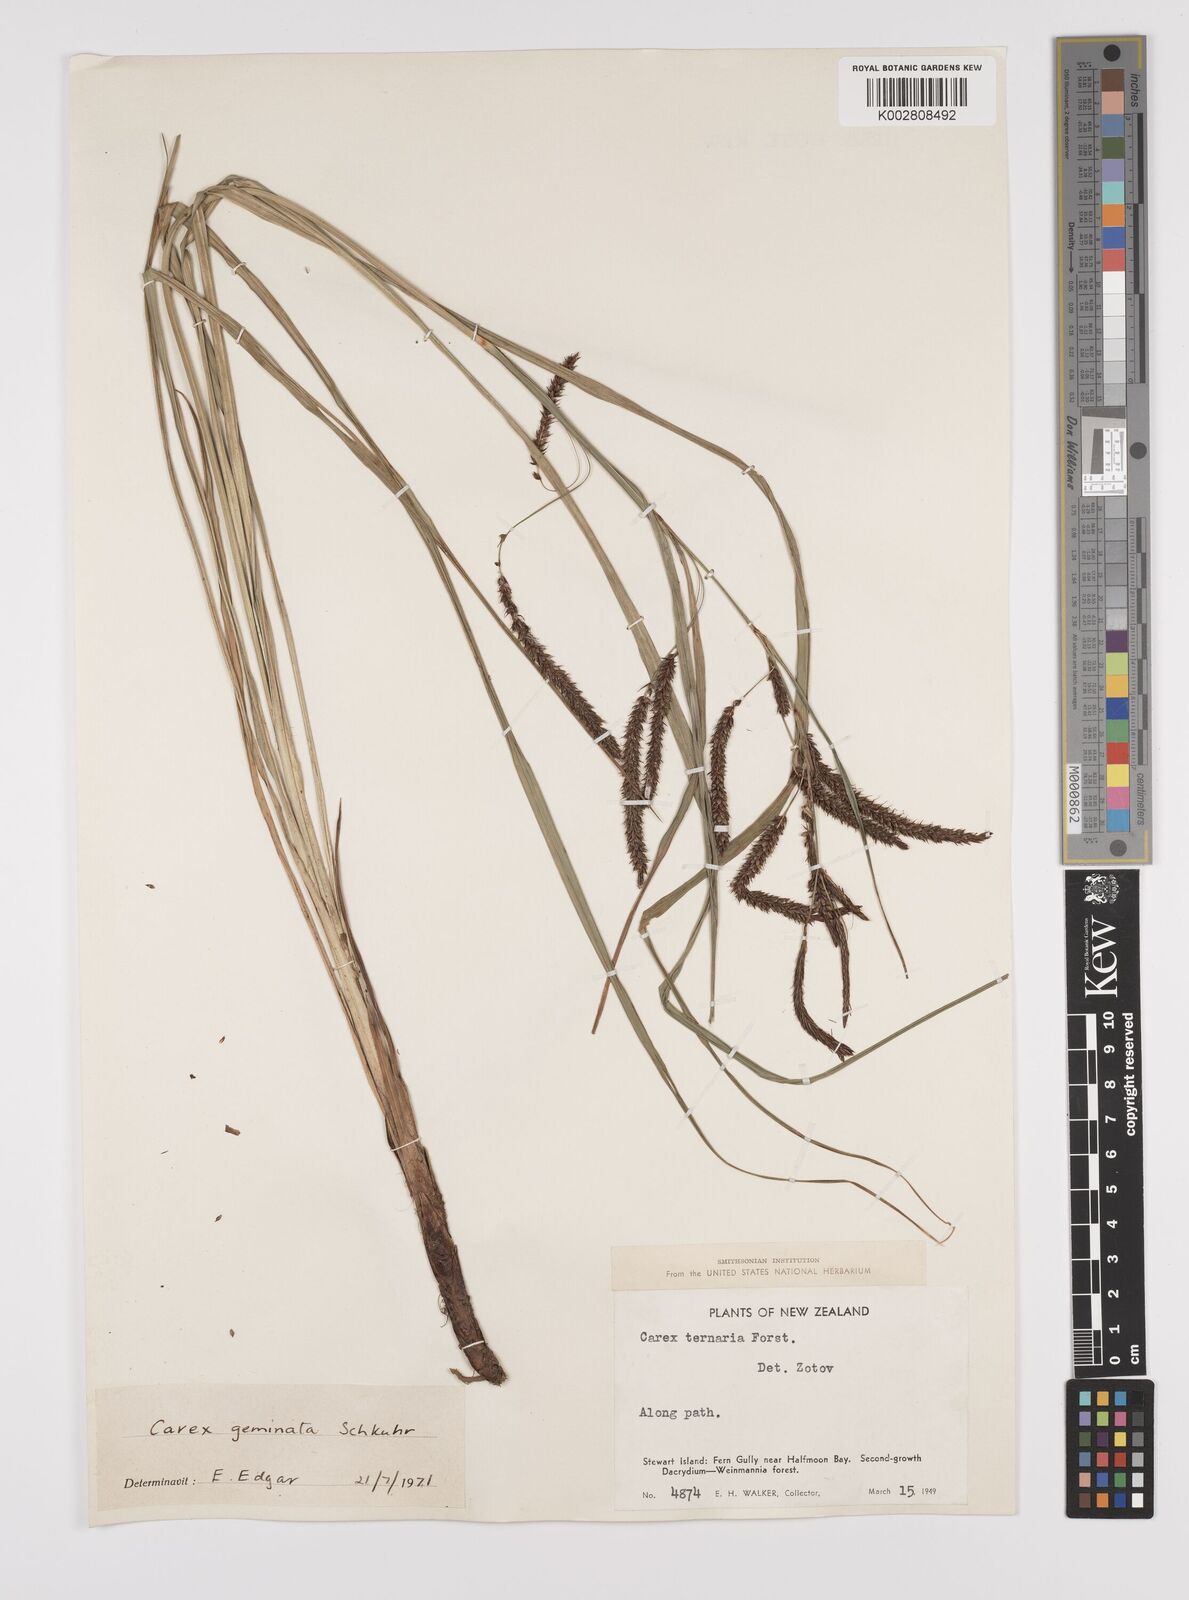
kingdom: Plantae
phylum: Tracheophyta
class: Liliopsida
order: Poales
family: Cyperaceae
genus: Carex
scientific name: Carex geminata
